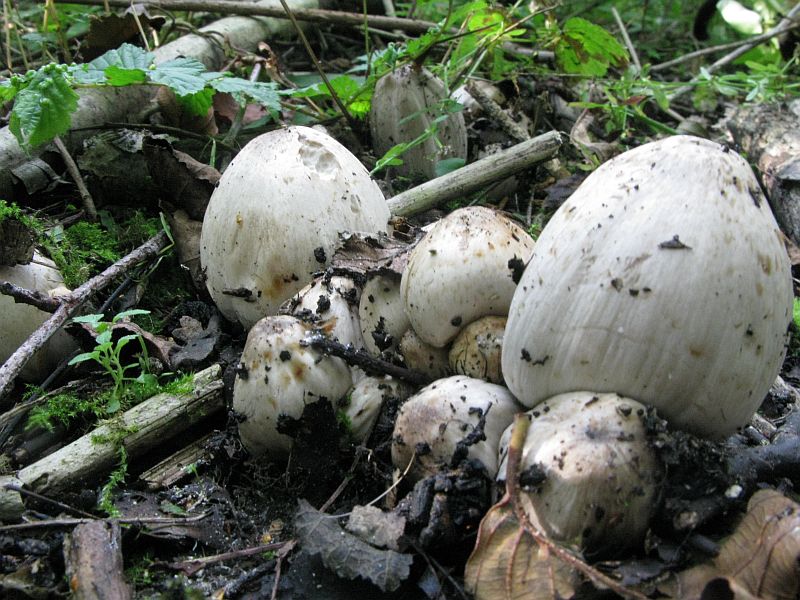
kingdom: Fungi
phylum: Basidiomycota
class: Agaricomycetes
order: Agaricales
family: Psathyrellaceae
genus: Coprinopsis
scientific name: Coprinopsis atramentaria
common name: almindelig blækhat
